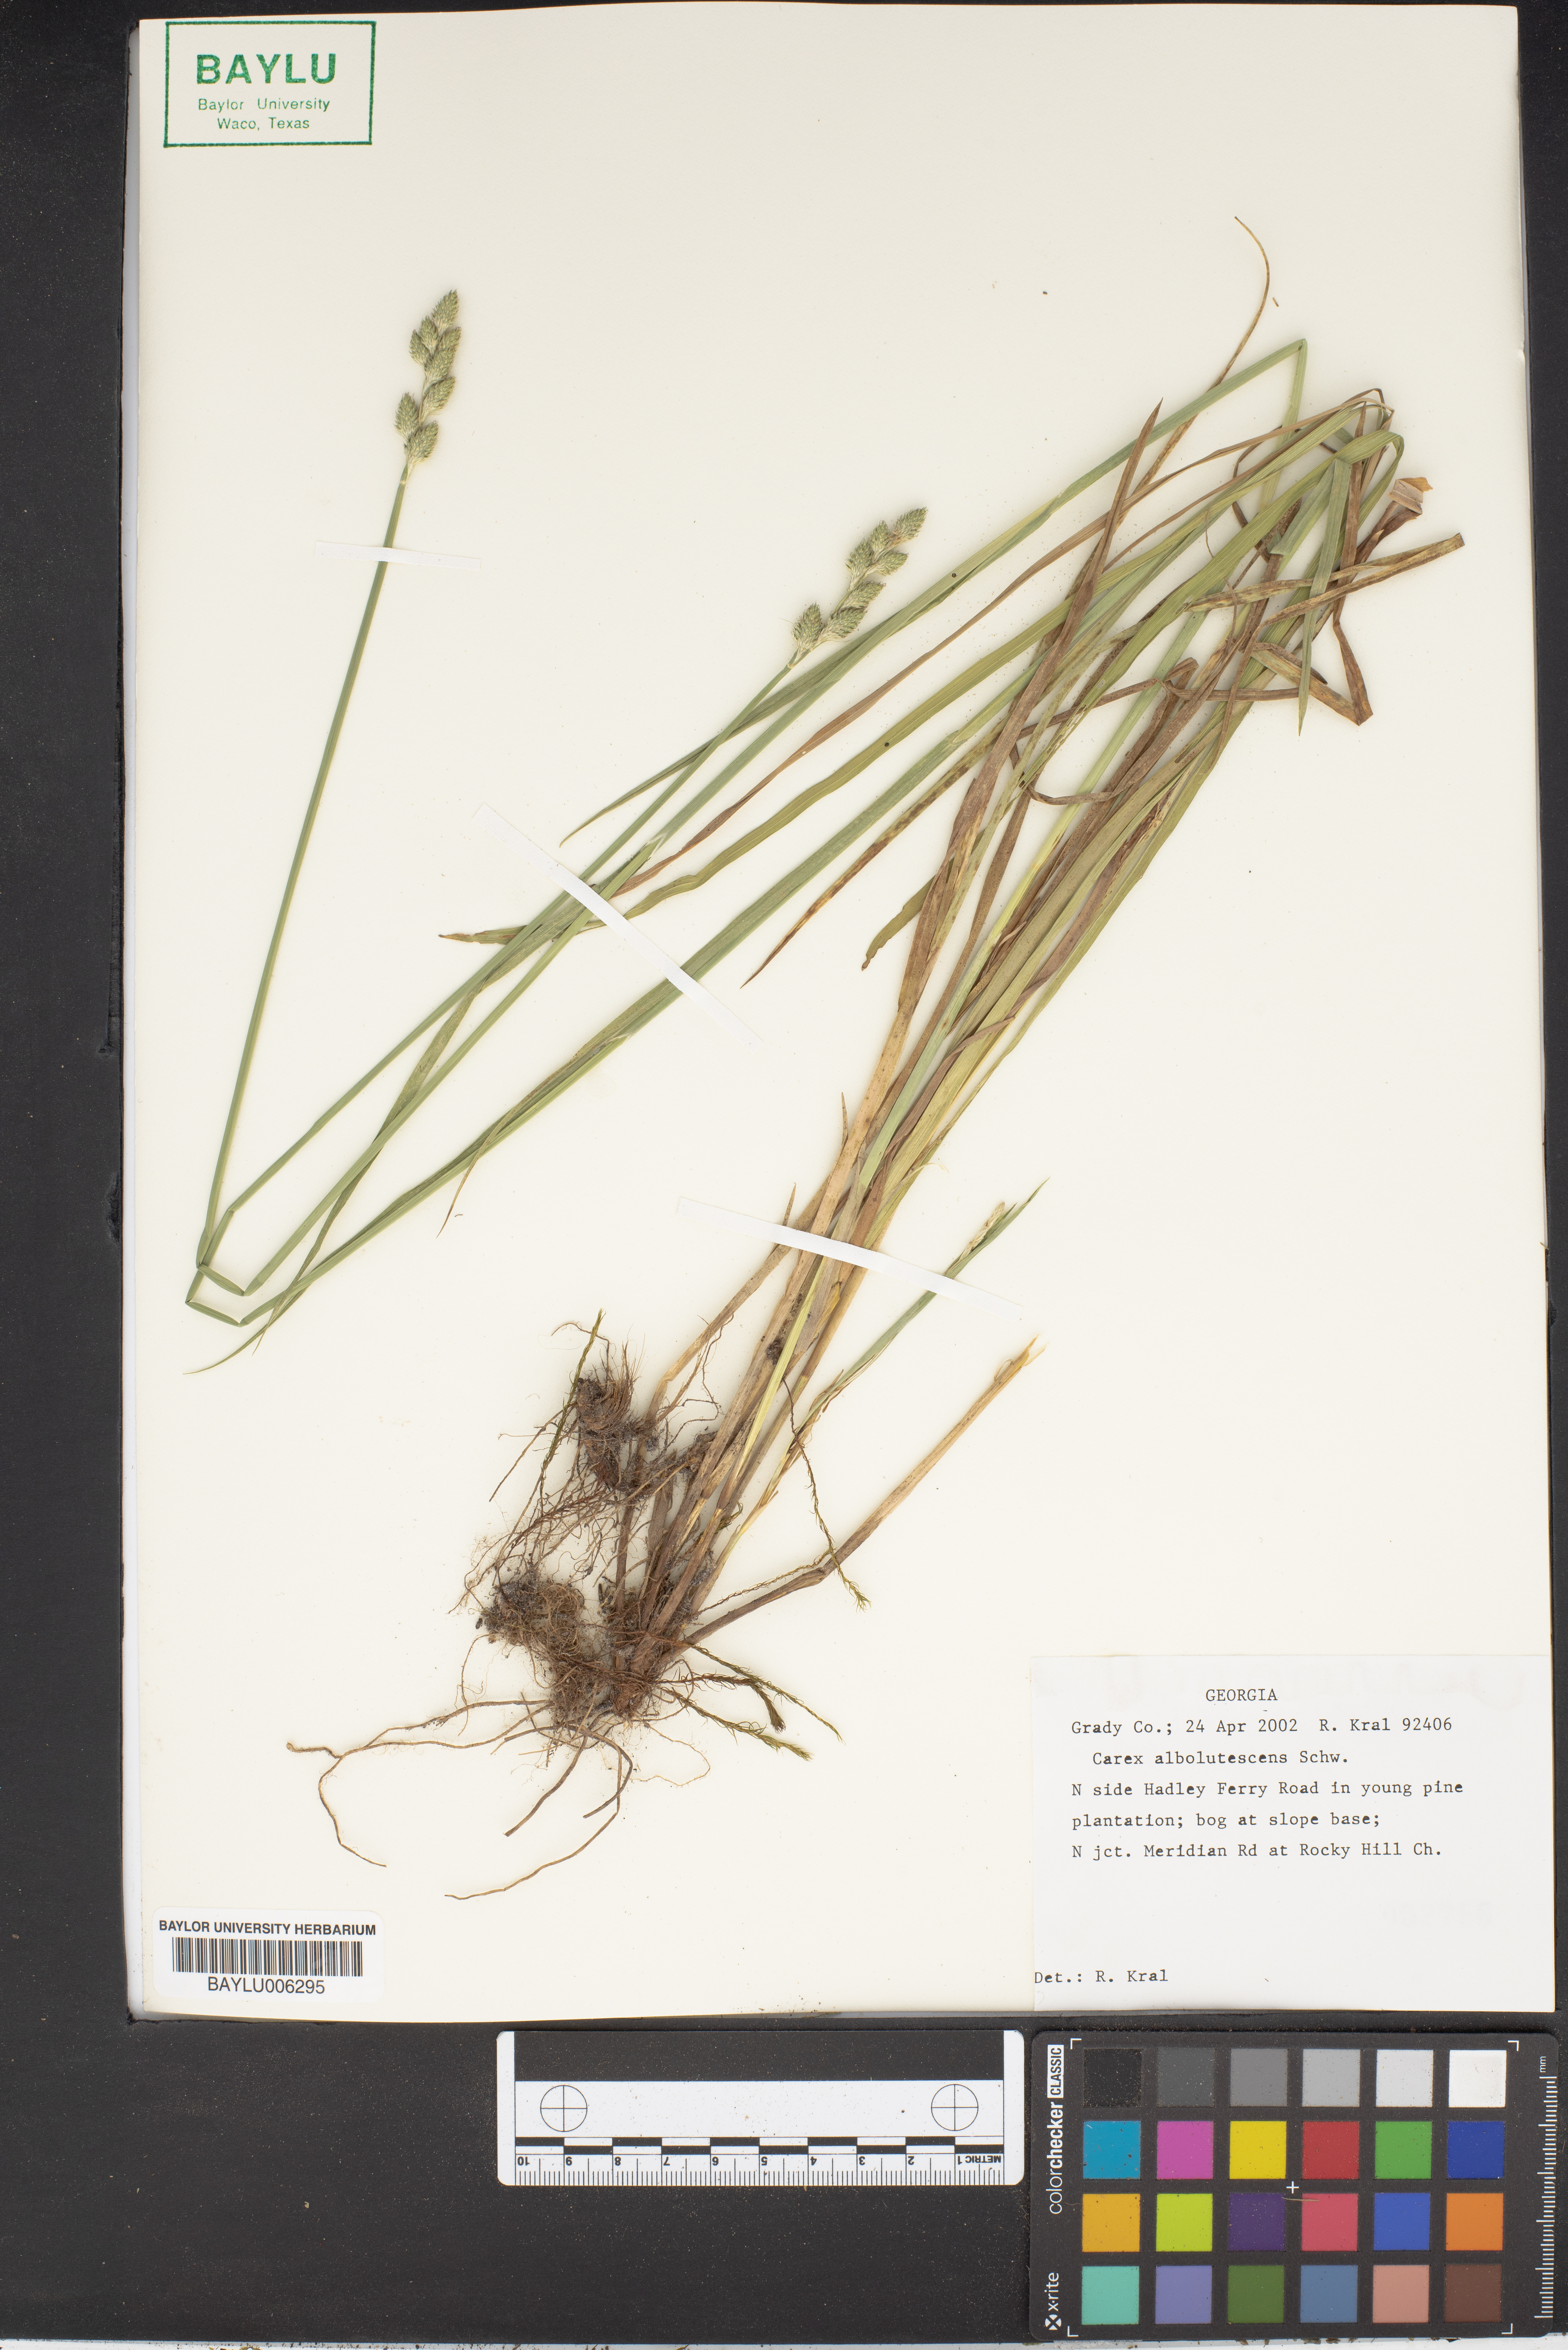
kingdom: Plantae
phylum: Tracheophyta
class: Liliopsida
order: Poales
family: Cyperaceae
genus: Carex
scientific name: Carex albolutescens
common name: Freenish white sedge
